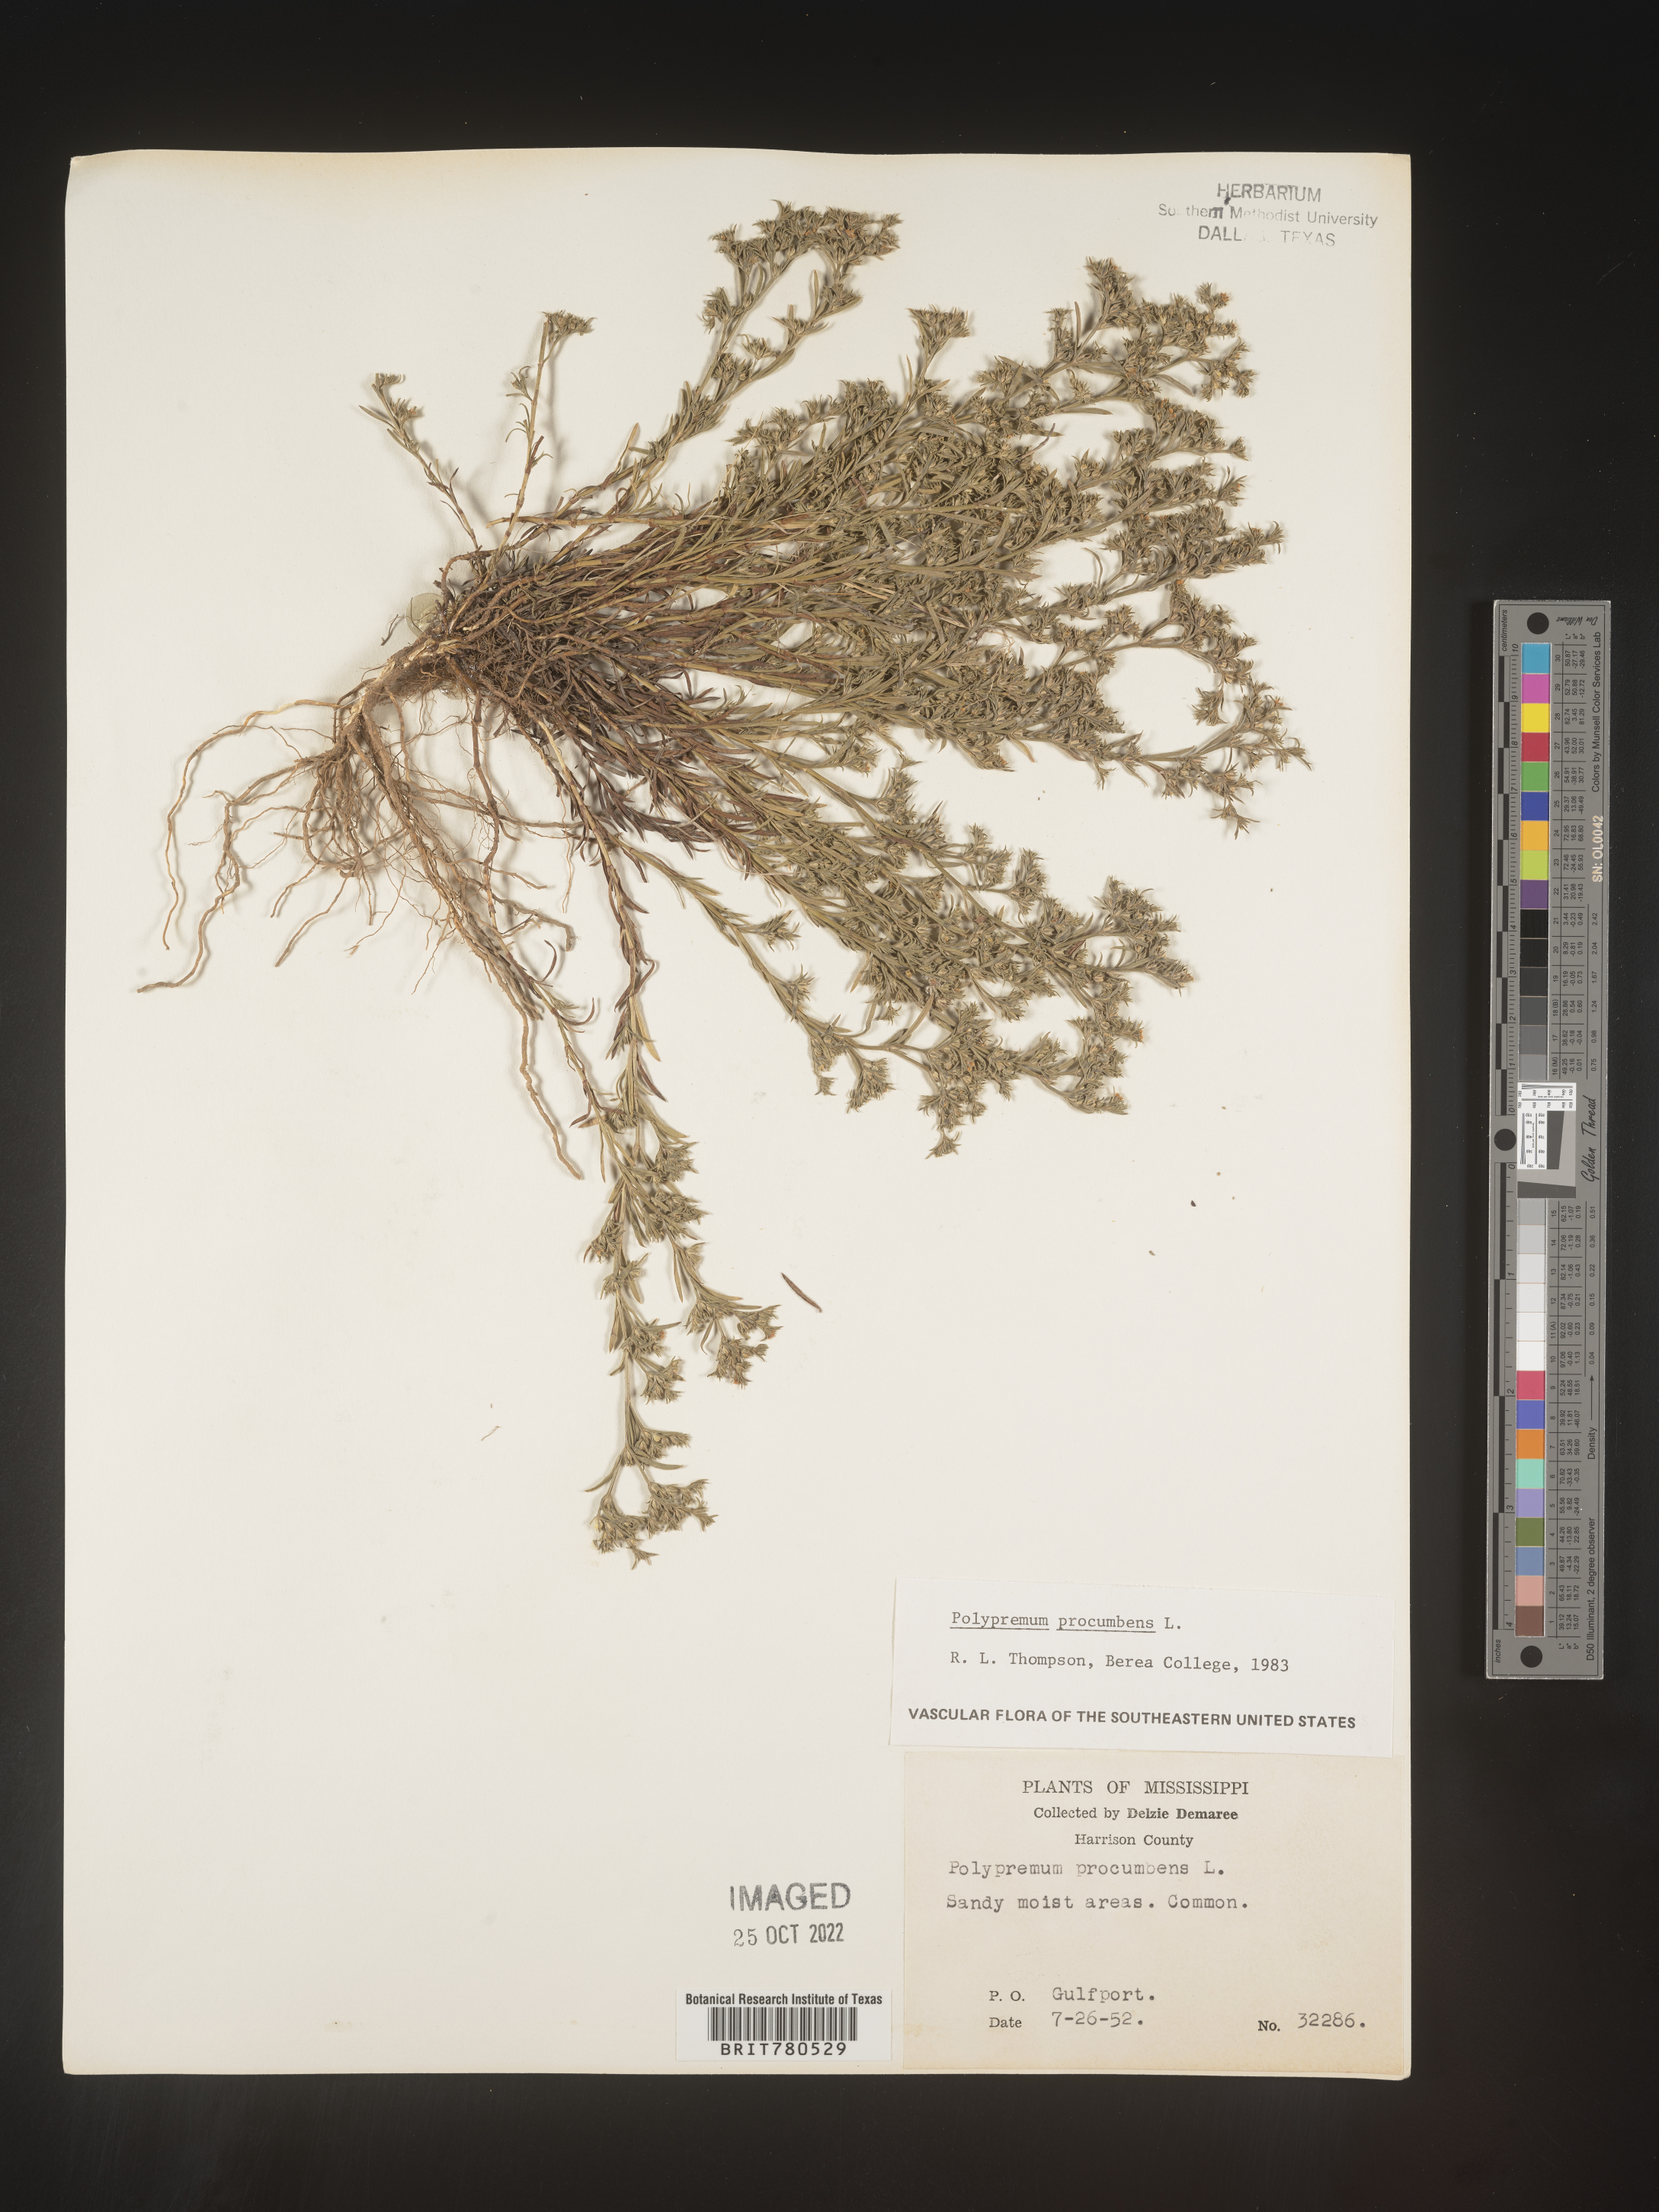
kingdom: Plantae
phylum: Tracheophyta
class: Magnoliopsida
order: Lamiales
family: Tetrachondraceae
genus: Polypremum
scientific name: Polypremum procumbens
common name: Juniper-leaf
